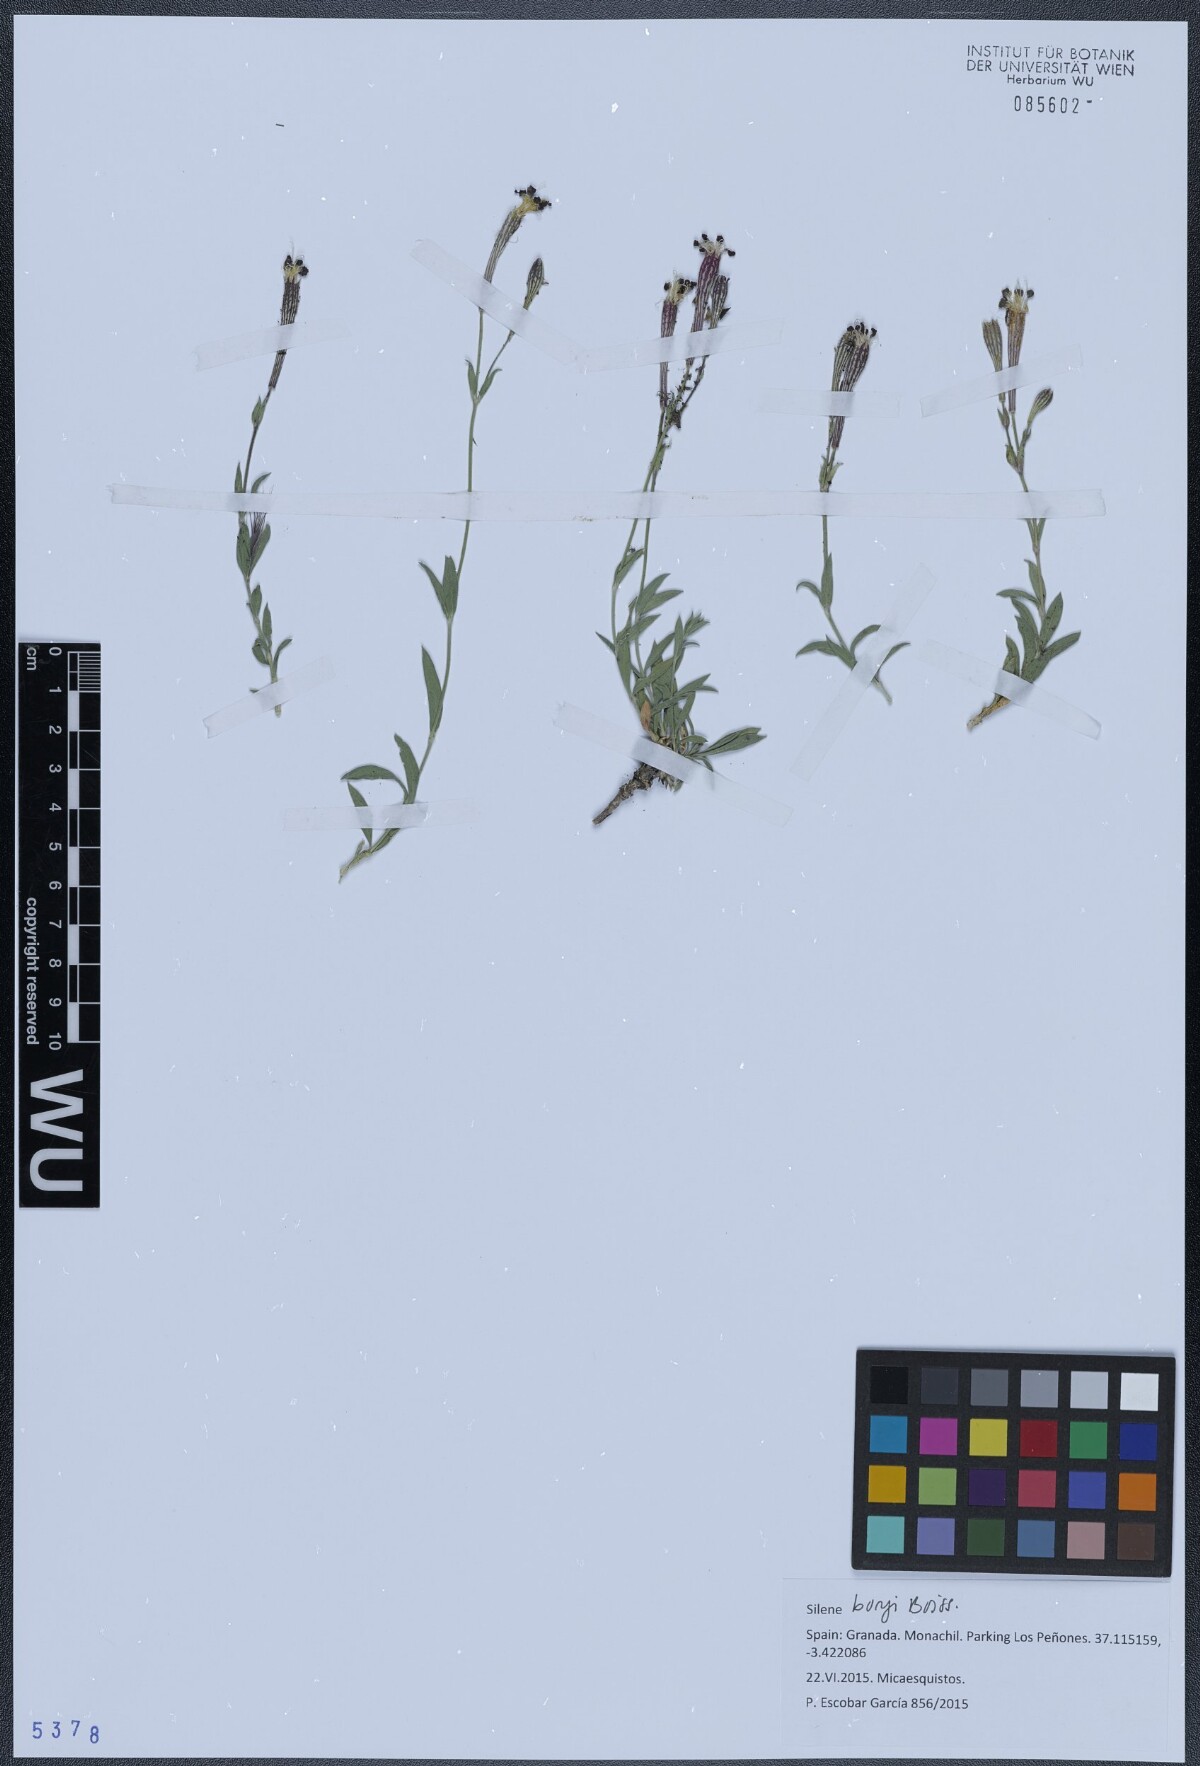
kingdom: Plantae
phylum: Tracheophyta
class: Magnoliopsida
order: Caryophyllales
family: Caryophyllaceae
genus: Silene
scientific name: Silene boryi
